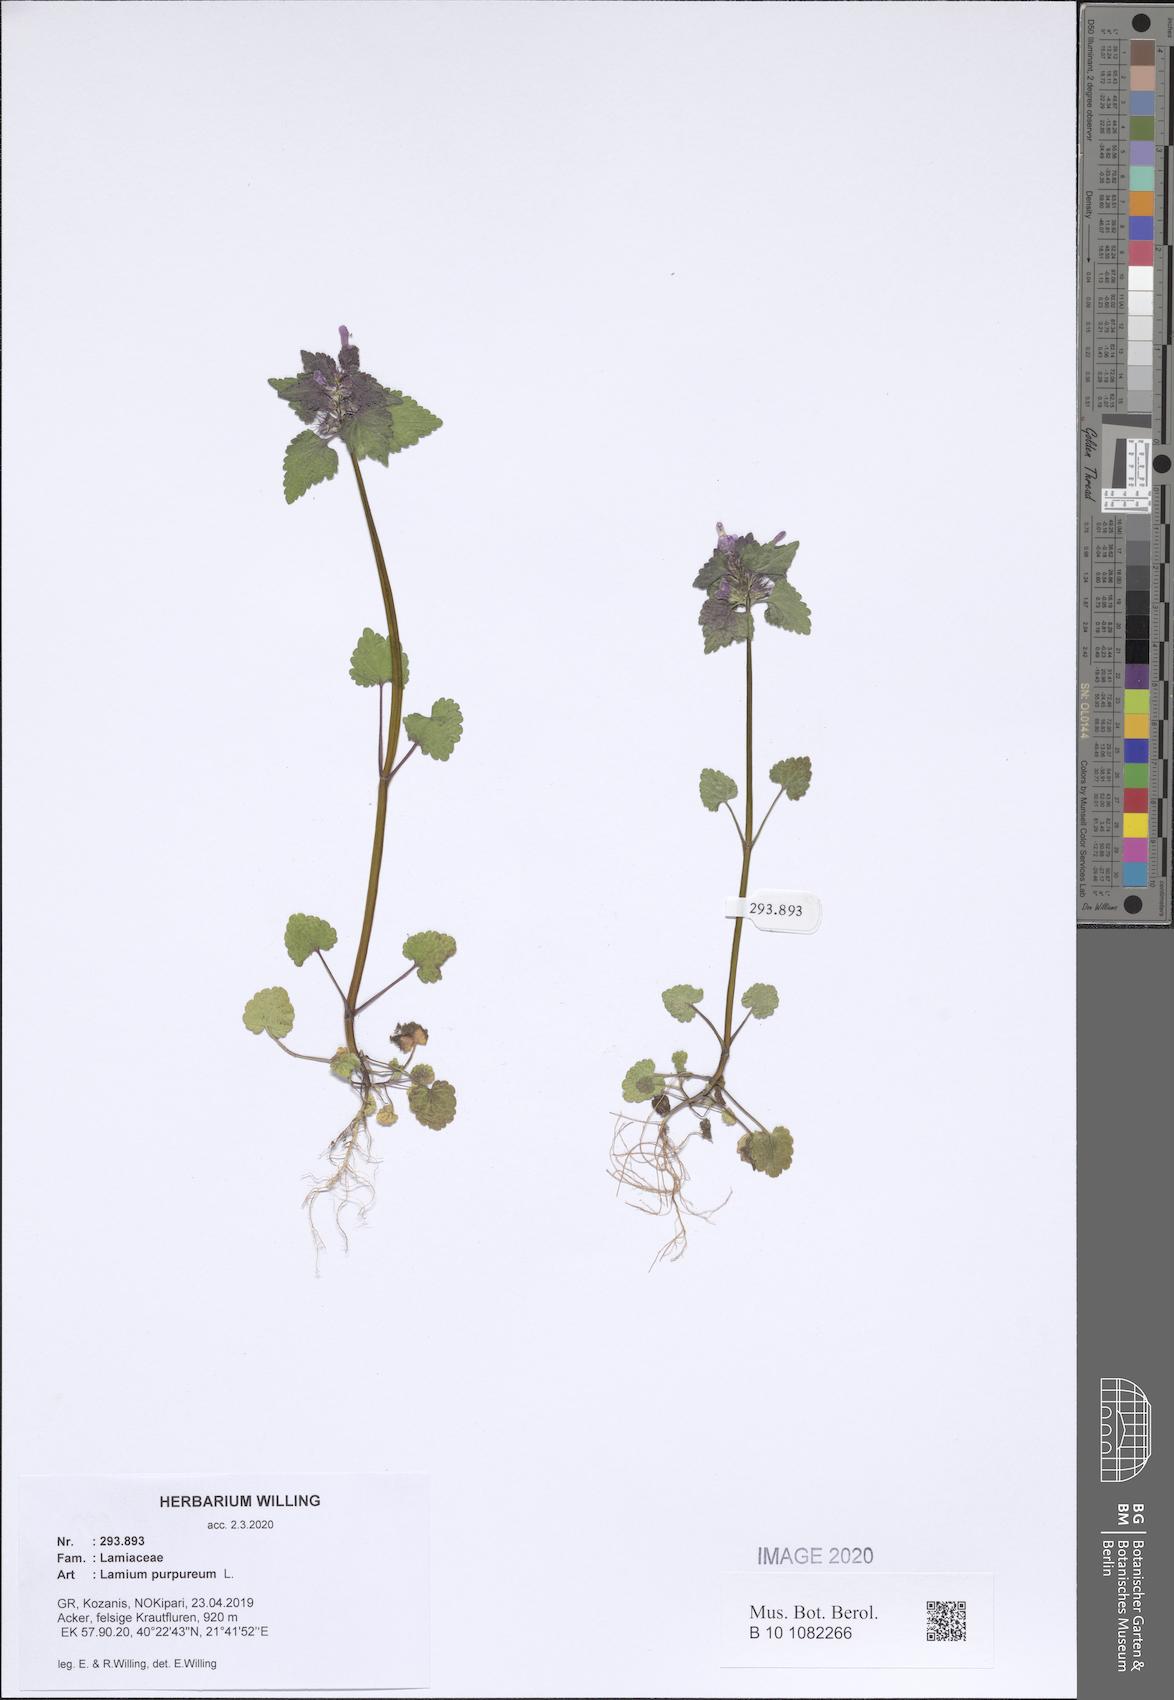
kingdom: Plantae
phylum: Tracheophyta
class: Magnoliopsida
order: Lamiales
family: Lamiaceae
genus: Lamium
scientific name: Lamium purpureum
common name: Red dead-nettle
